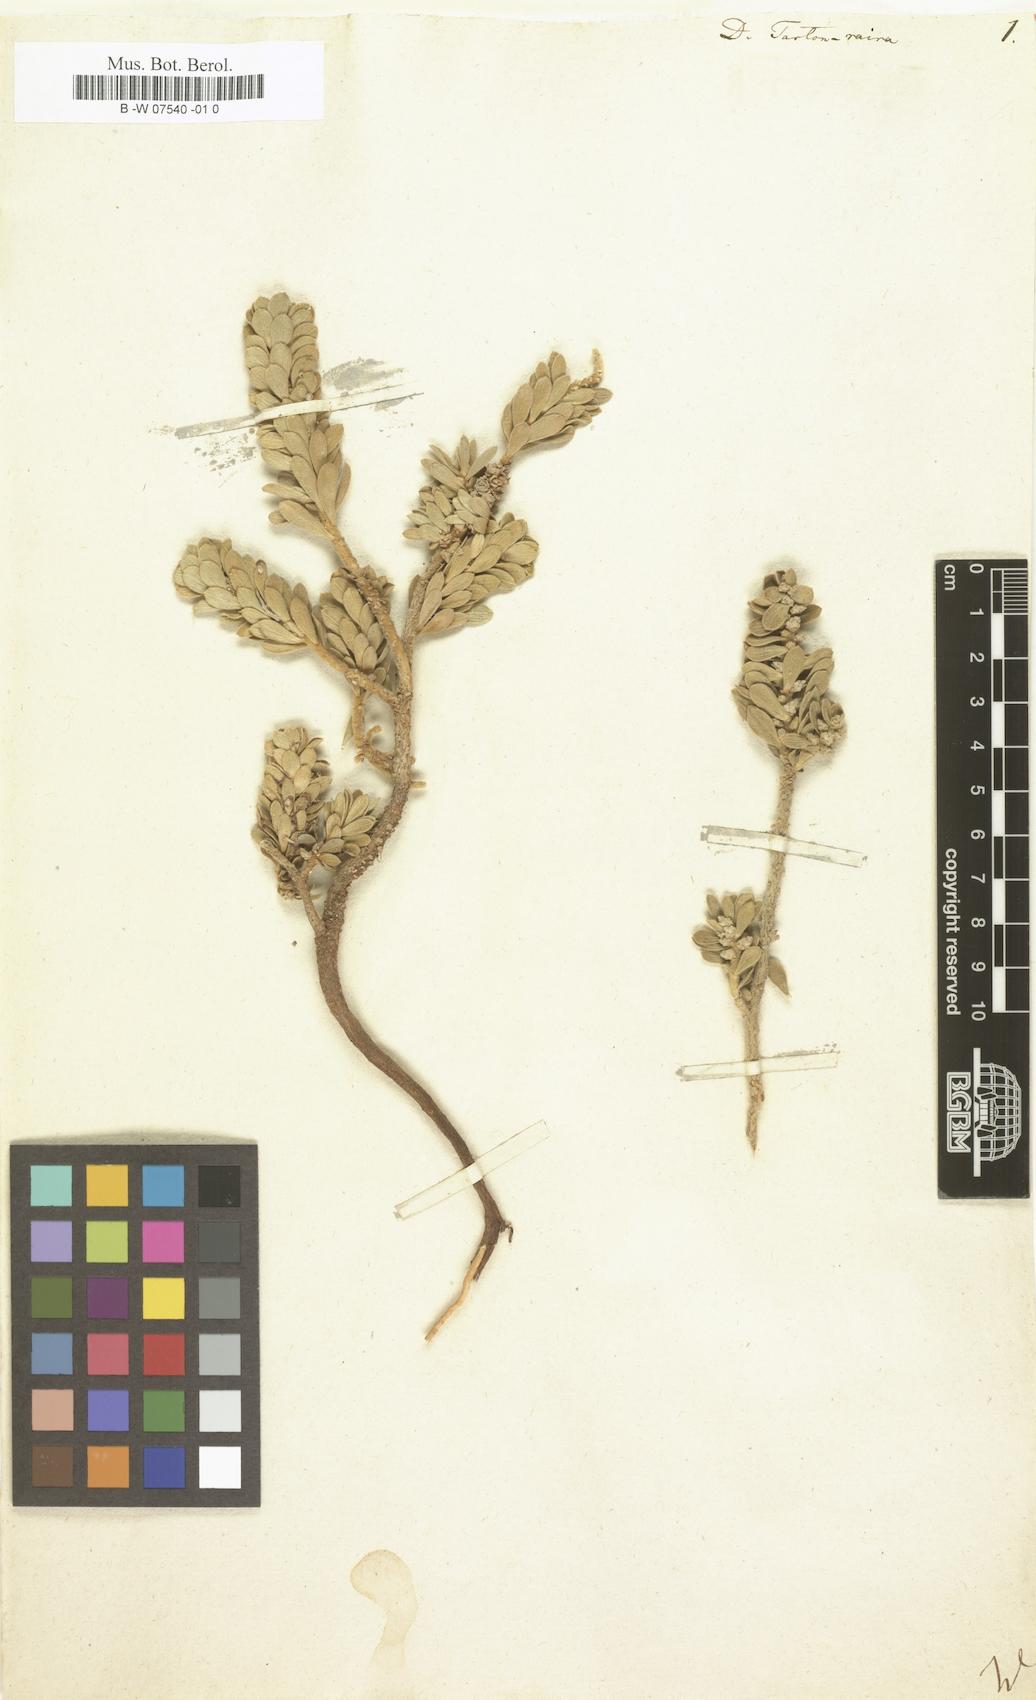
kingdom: Plantae
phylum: Tracheophyta
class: Magnoliopsida
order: Malvales
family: Thymelaeaceae
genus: Thymelaea
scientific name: Thymelaea tartonraira
